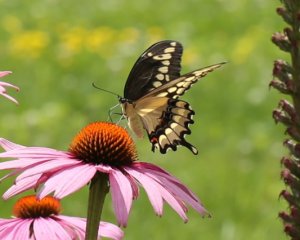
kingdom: Animalia
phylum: Arthropoda
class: Insecta
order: Lepidoptera
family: Papilionidae
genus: Papilio
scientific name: Papilio cresphontes
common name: Eastern Giant Swallowtail
